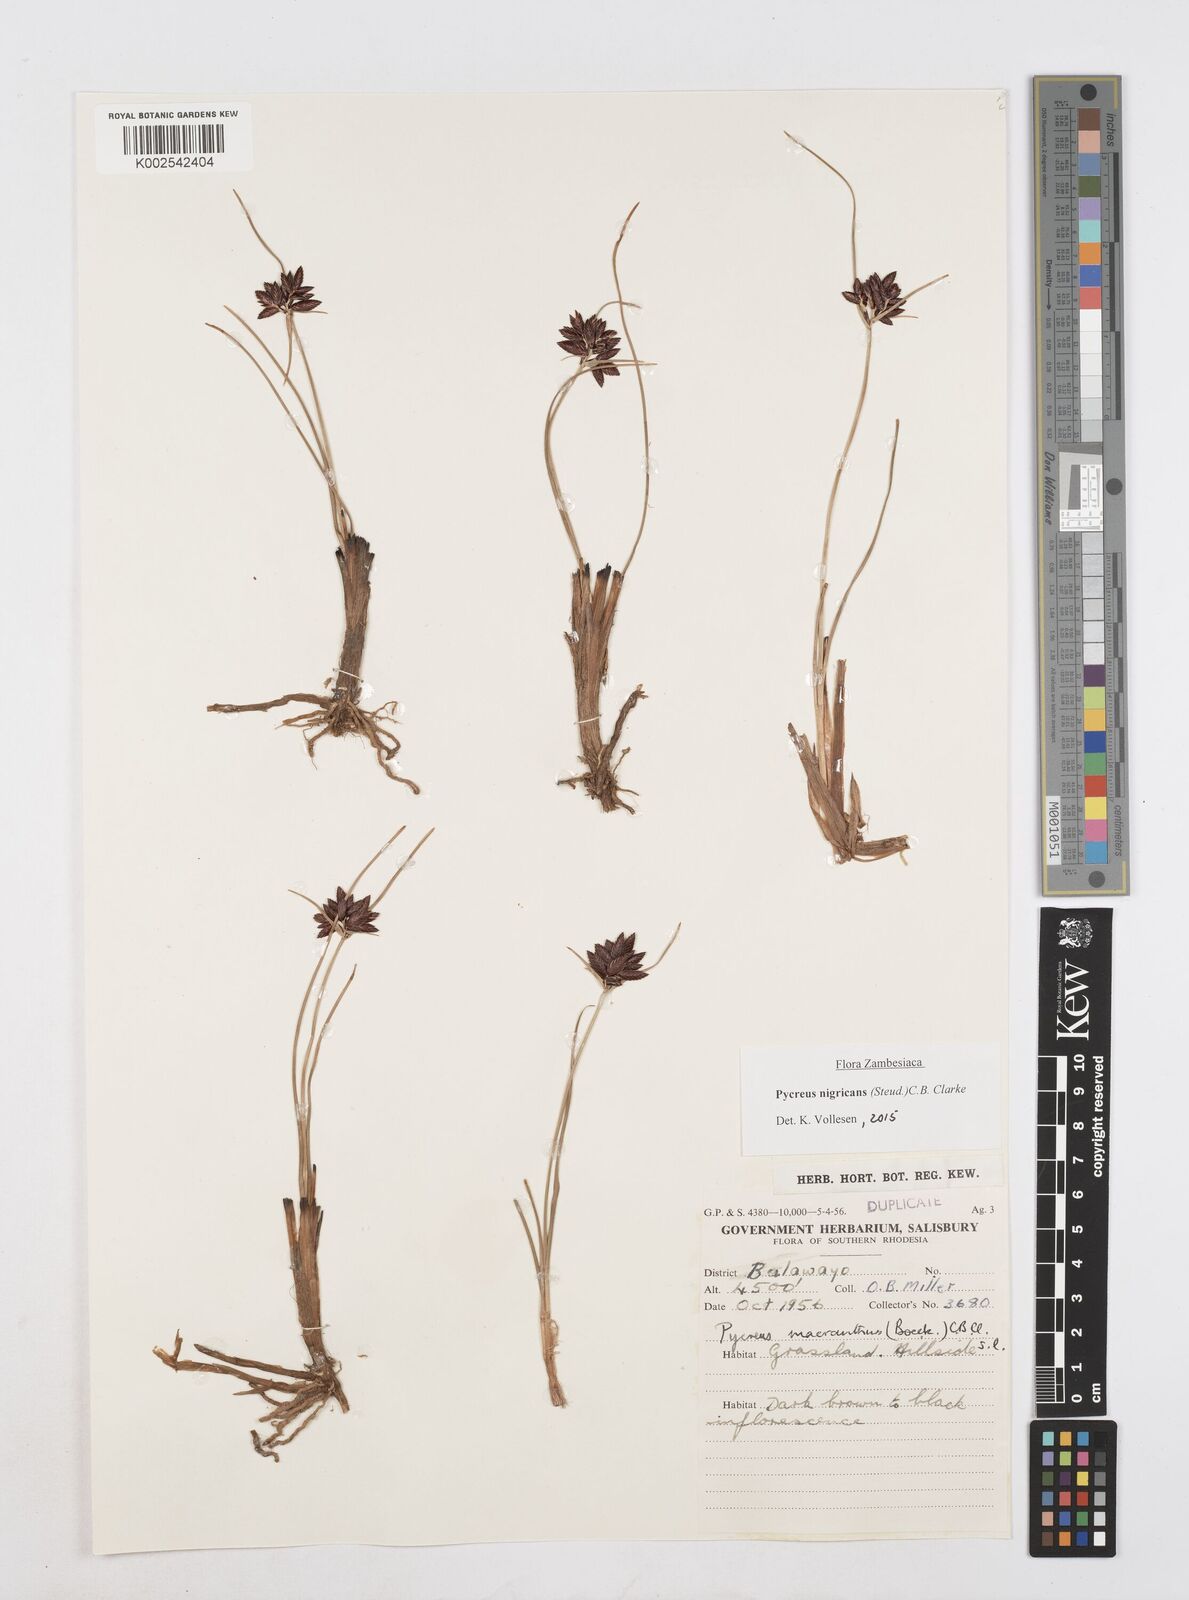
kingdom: Plantae
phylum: Tracheophyta
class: Liliopsida
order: Poales
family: Cyperaceae
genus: Cyperus
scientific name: Cyperus nigricans
